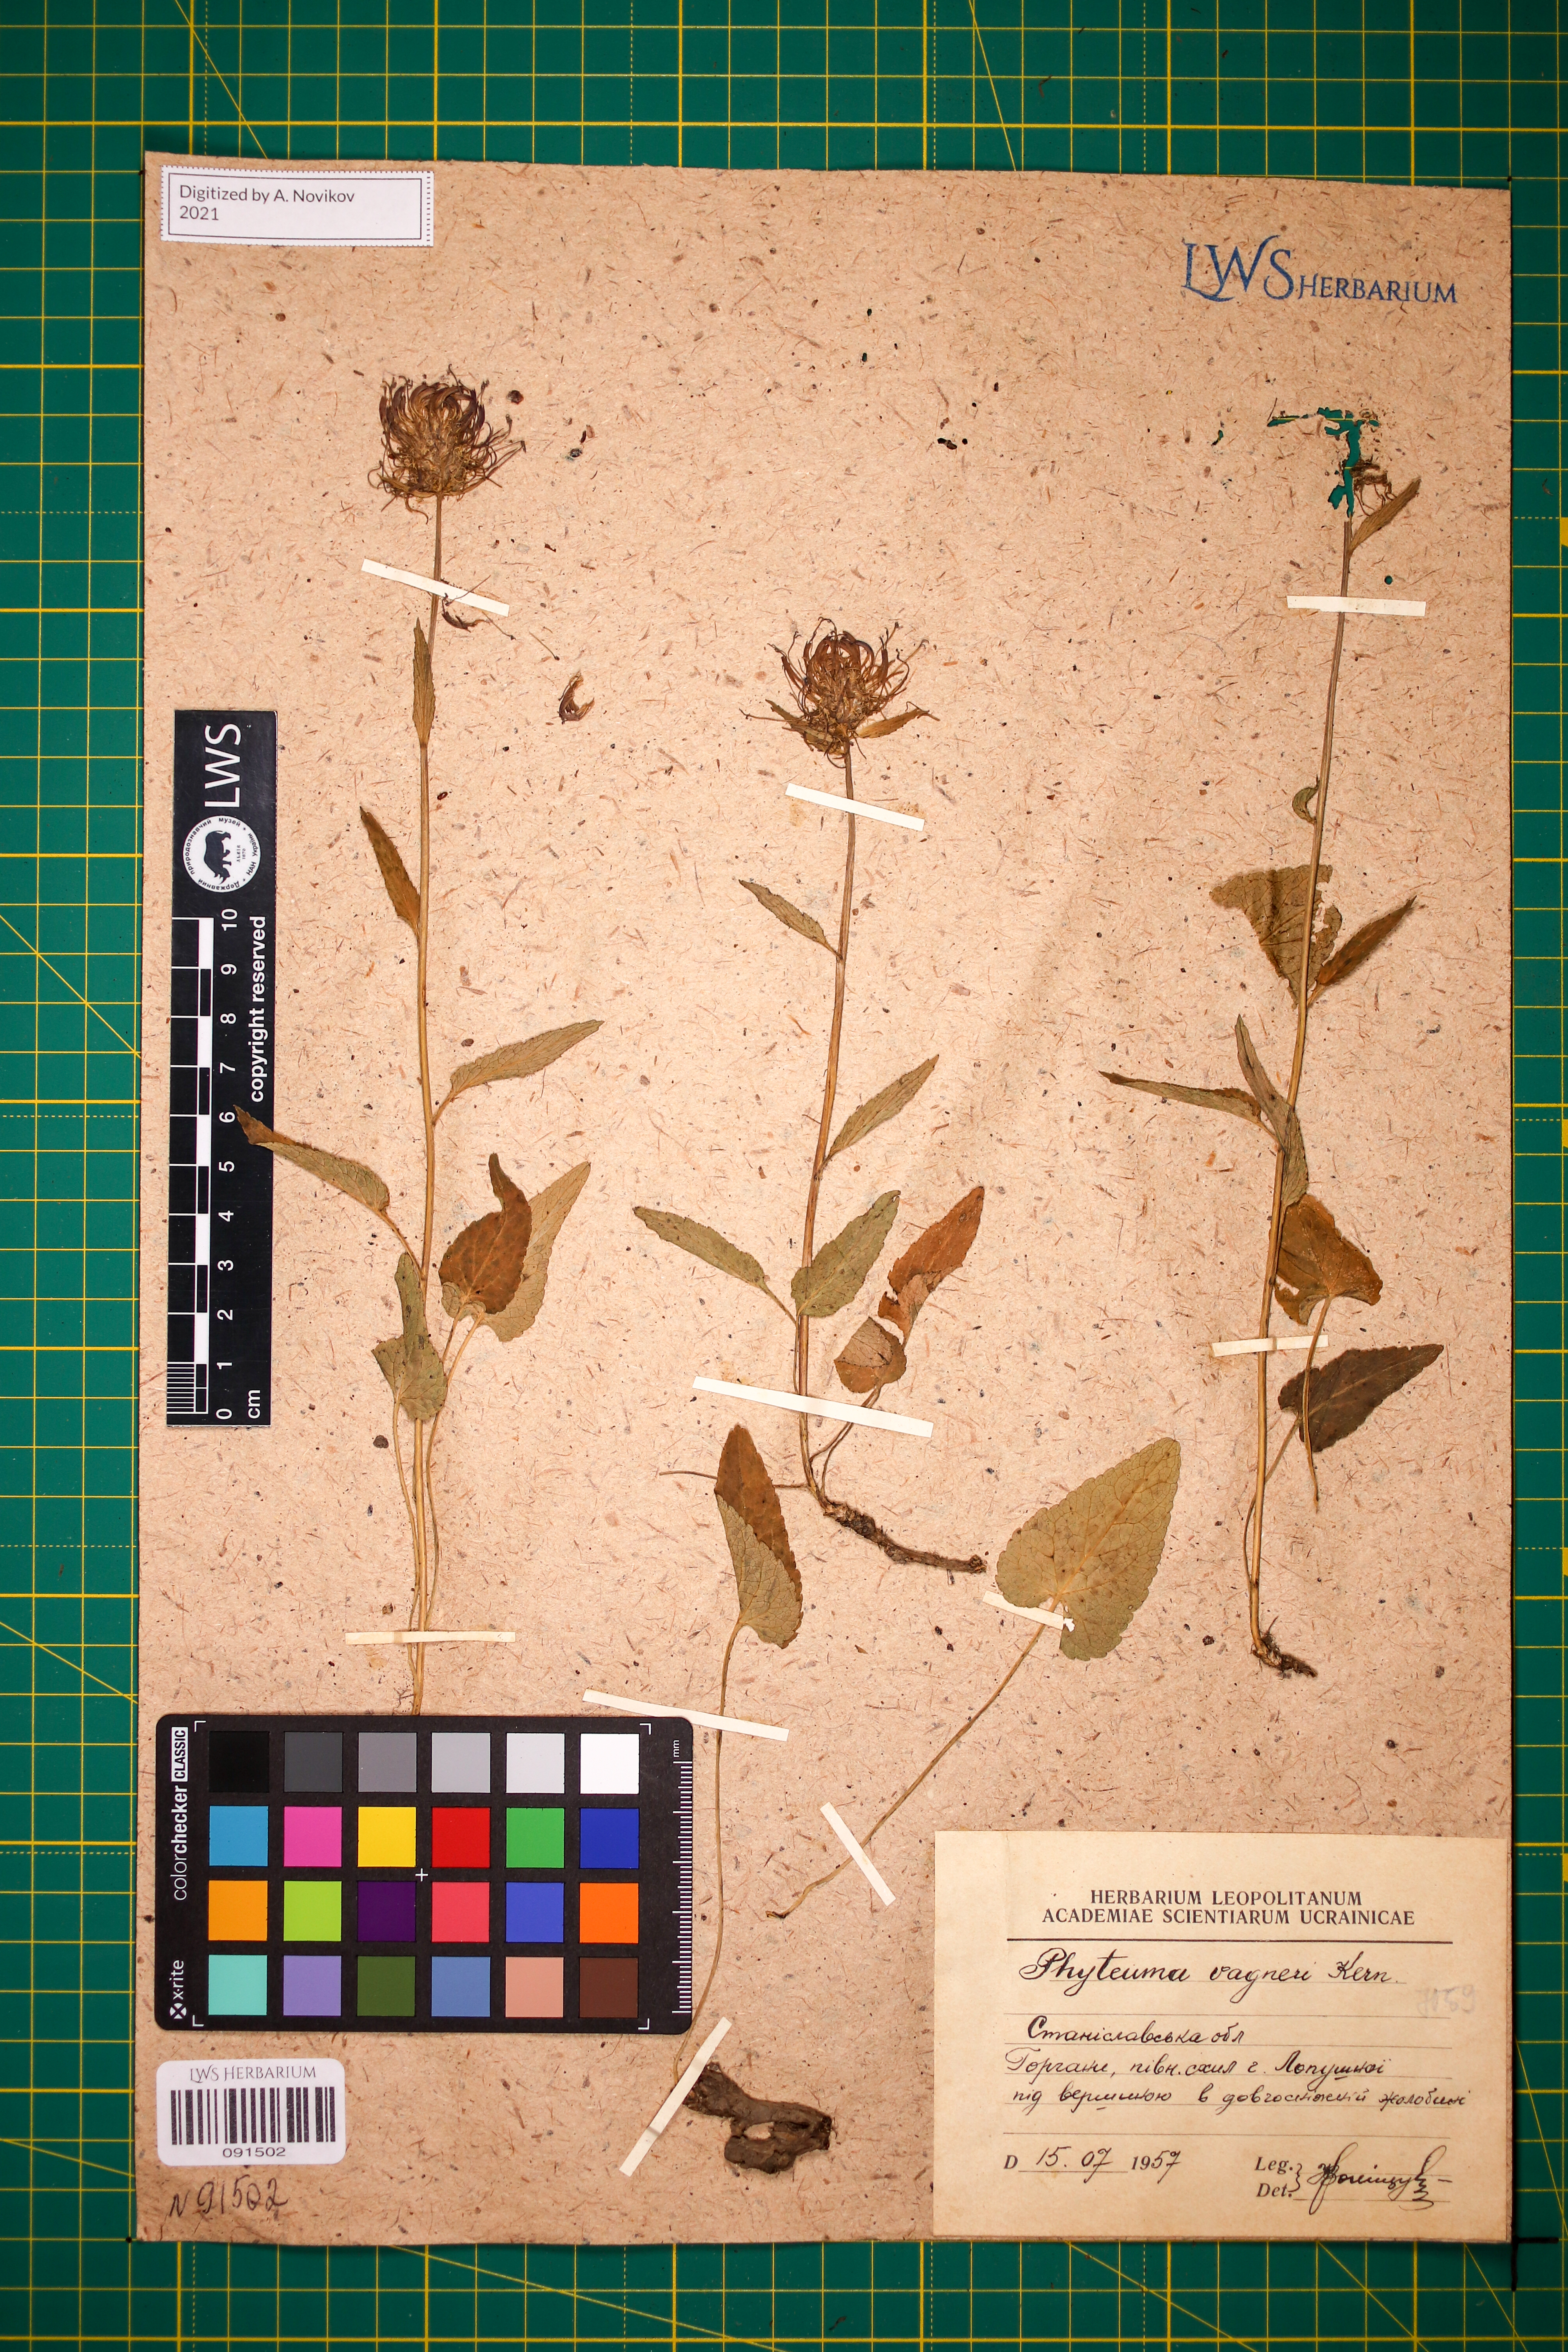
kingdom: Plantae
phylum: Tracheophyta
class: Magnoliopsida
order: Asterales
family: Campanulaceae
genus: Phyteuma
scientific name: Phyteuma vagneri
